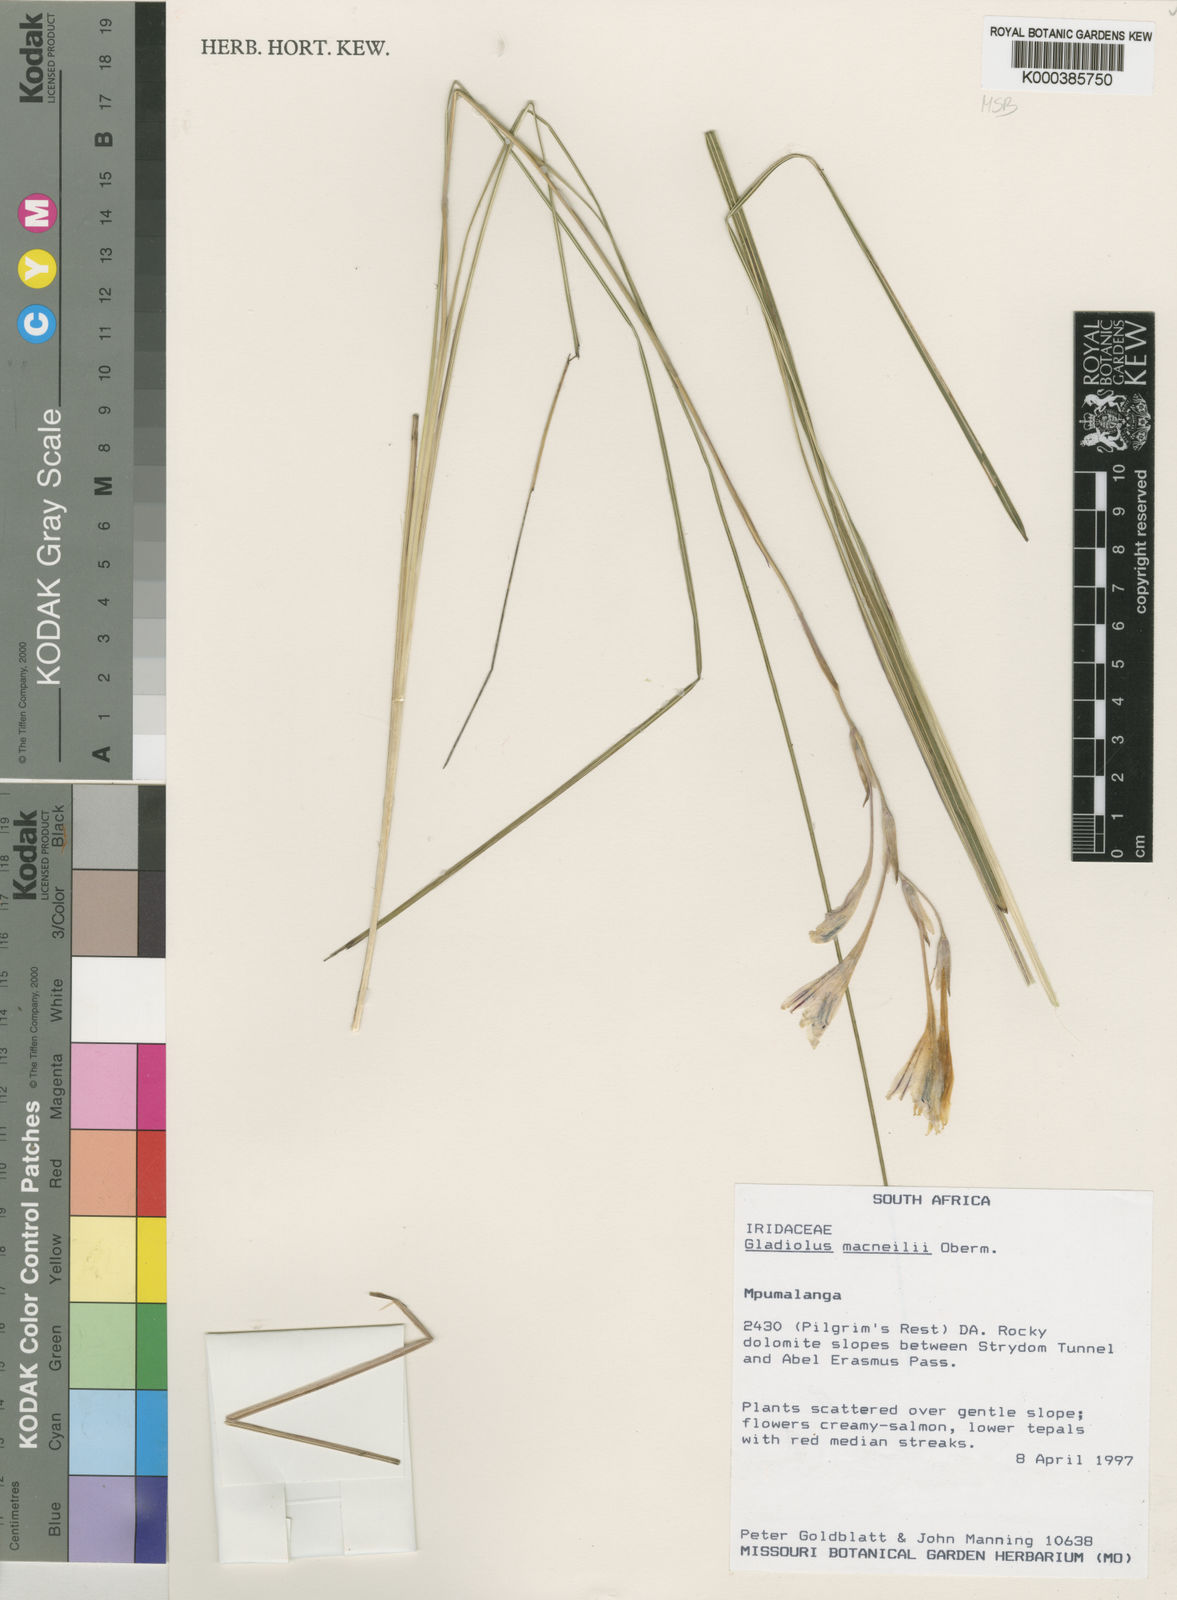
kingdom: Plantae
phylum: Tracheophyta
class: Liliopsida
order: Asparagales
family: Iridaceae
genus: Gladiolus
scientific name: Gladiolus macneilii
